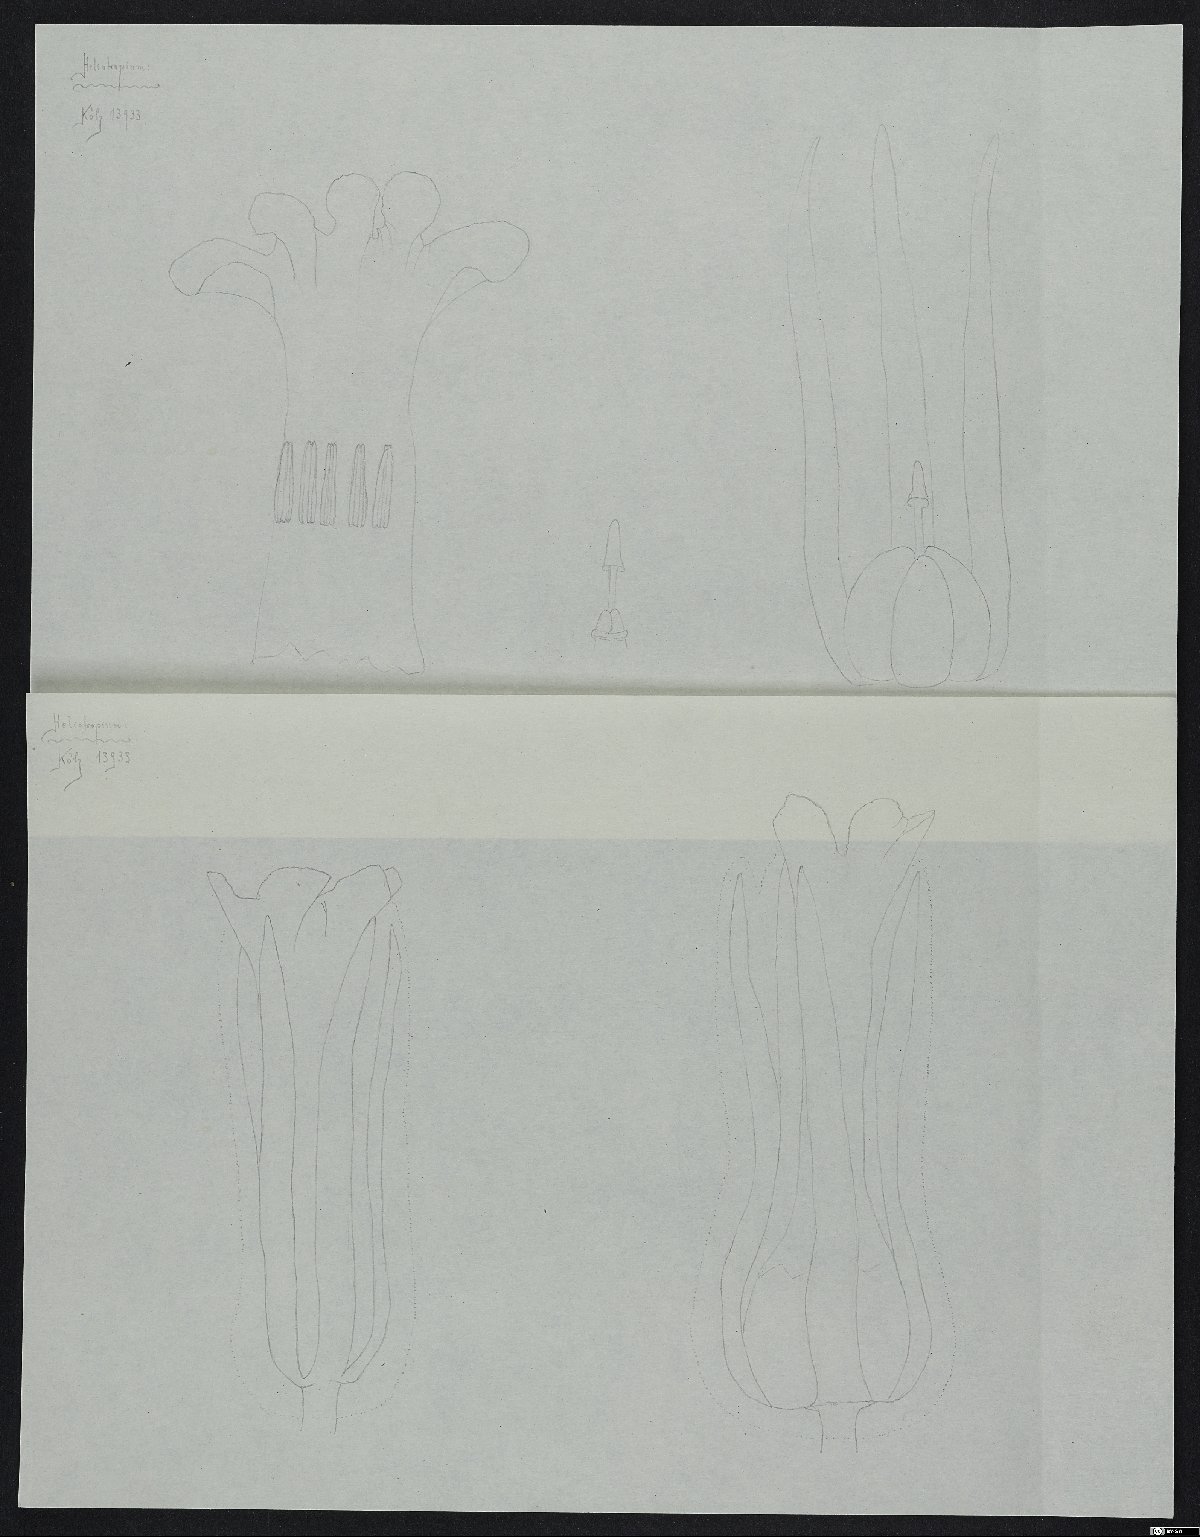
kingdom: Plantae
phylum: Tracheophyta
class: Magnoliopsida
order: Boraginales
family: Heliotropiaceae
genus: Heliotropium
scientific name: Heliotropium chorassanicum
